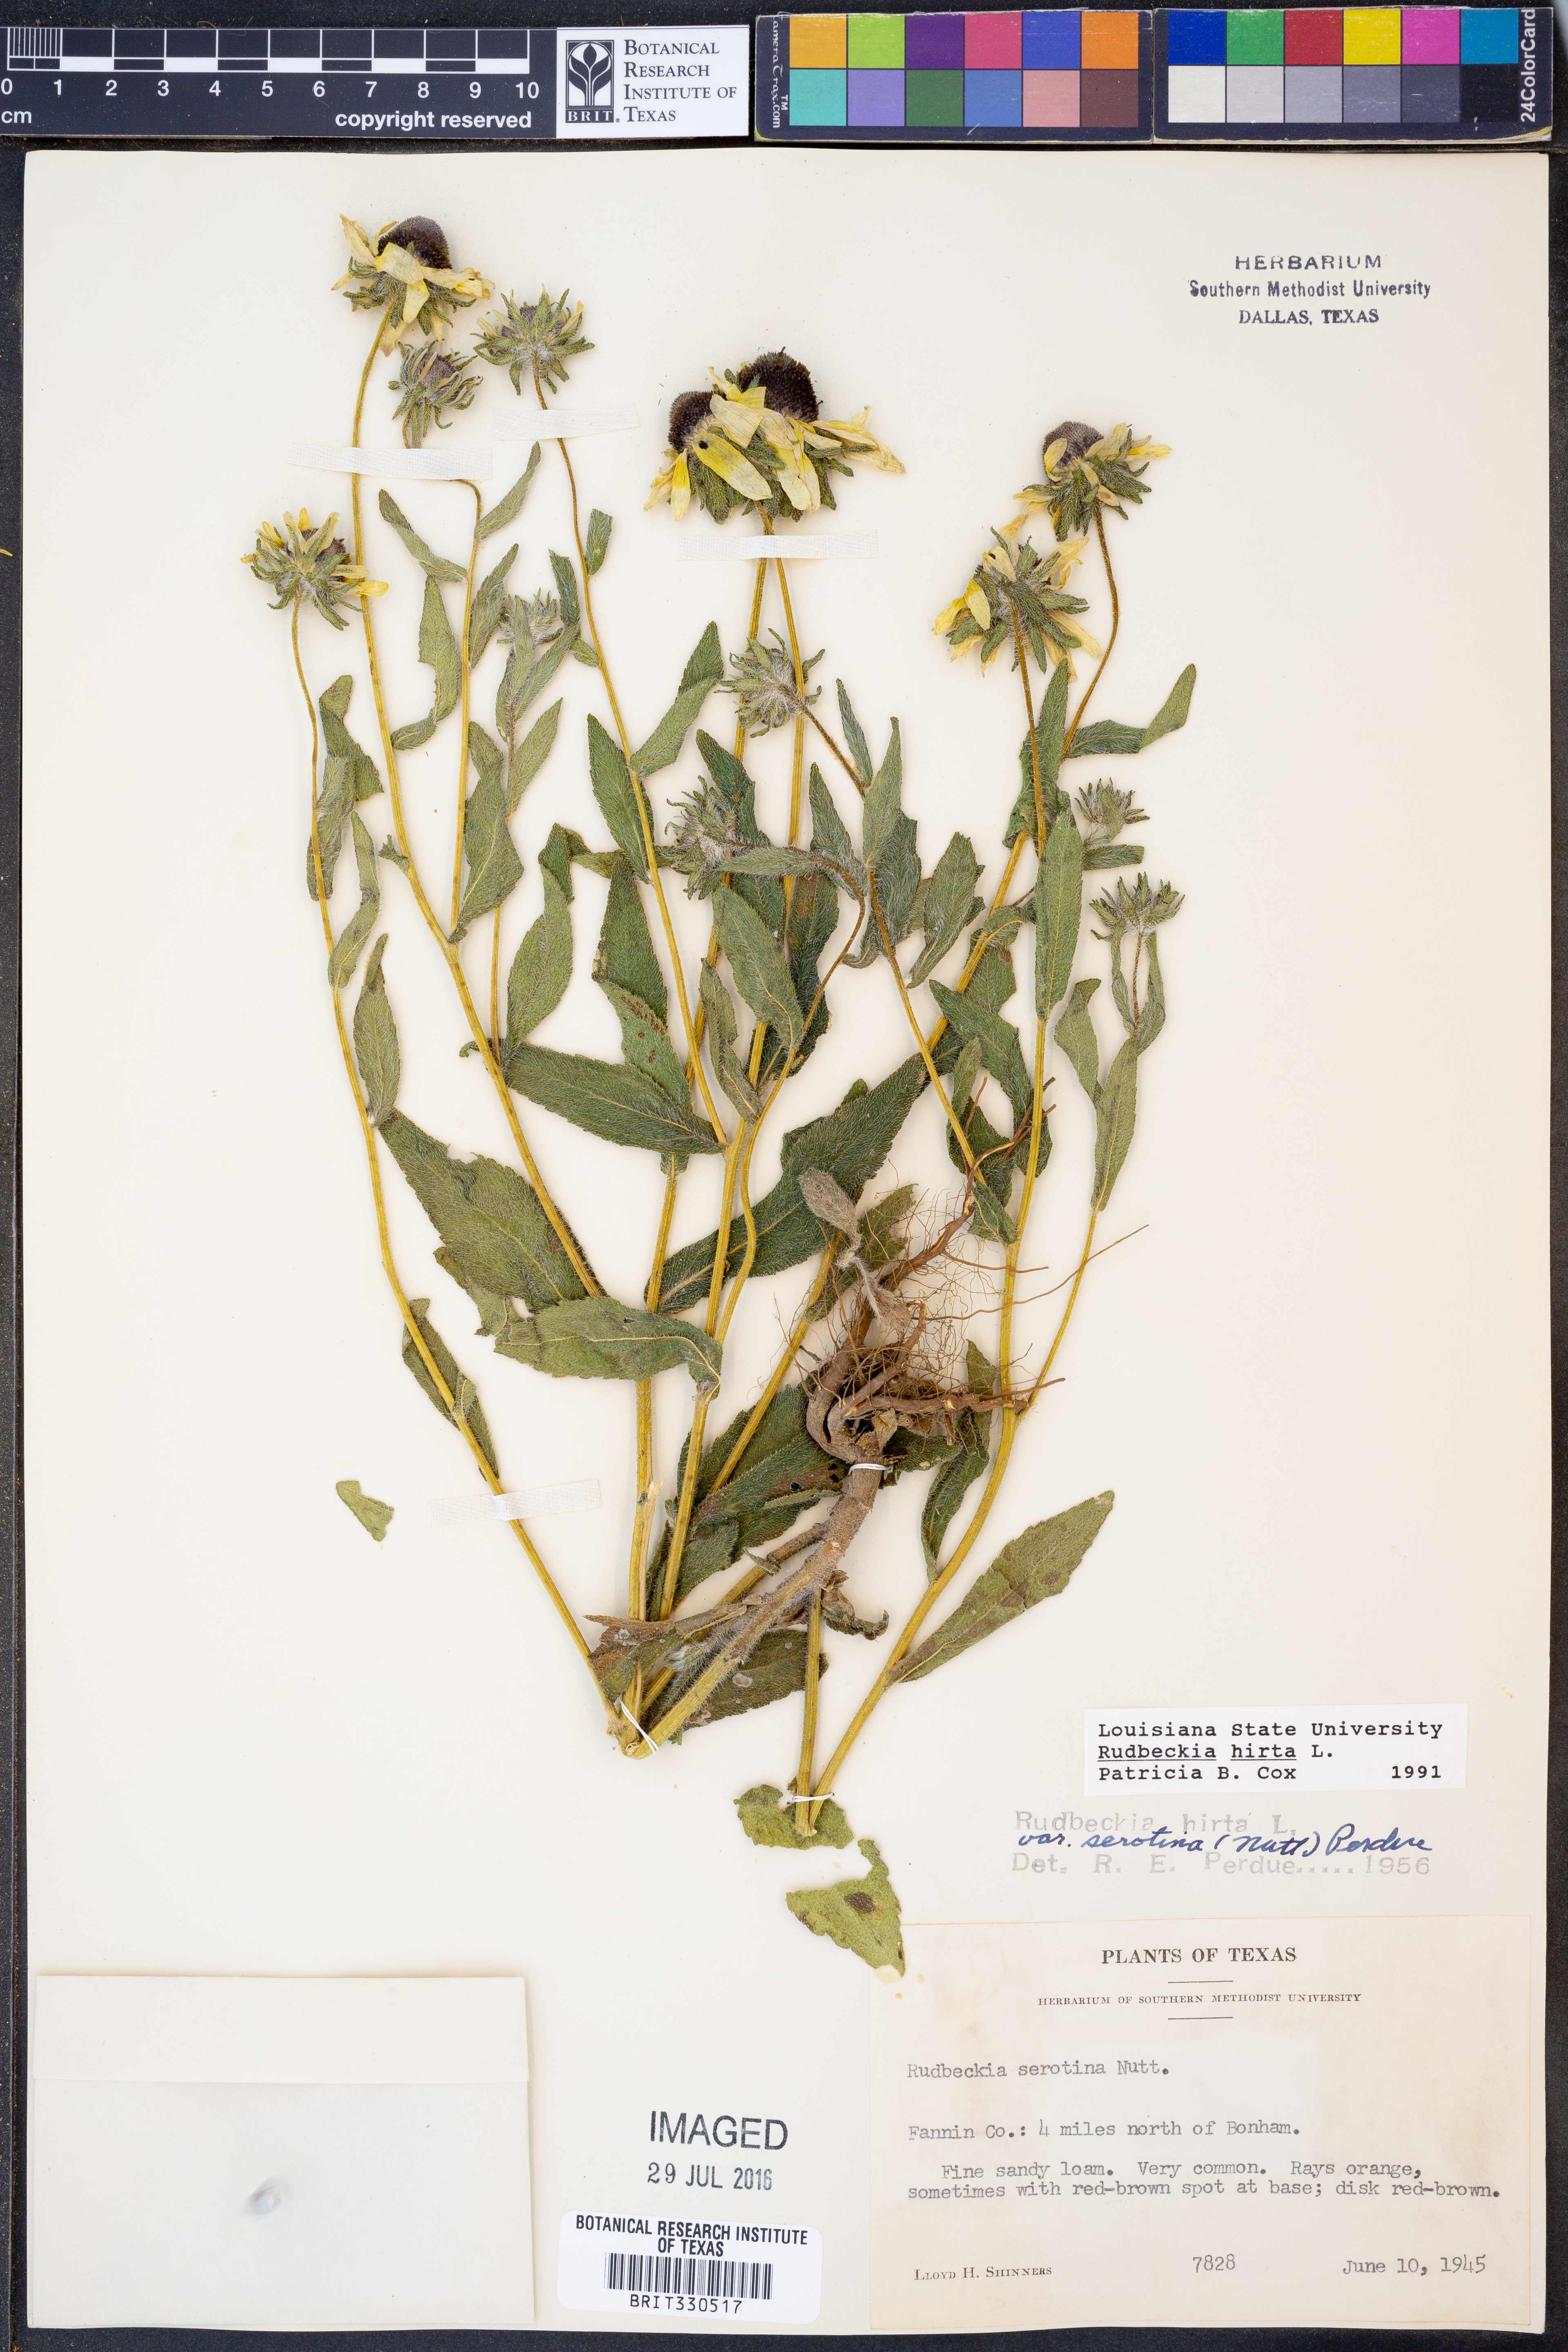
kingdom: Plantae
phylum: Tracheophyta
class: Magnoliopsida
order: Asterales
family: Asteraceae
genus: Rudbeckia
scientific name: Rudbeckia hirta
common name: Black-eyed-susan
